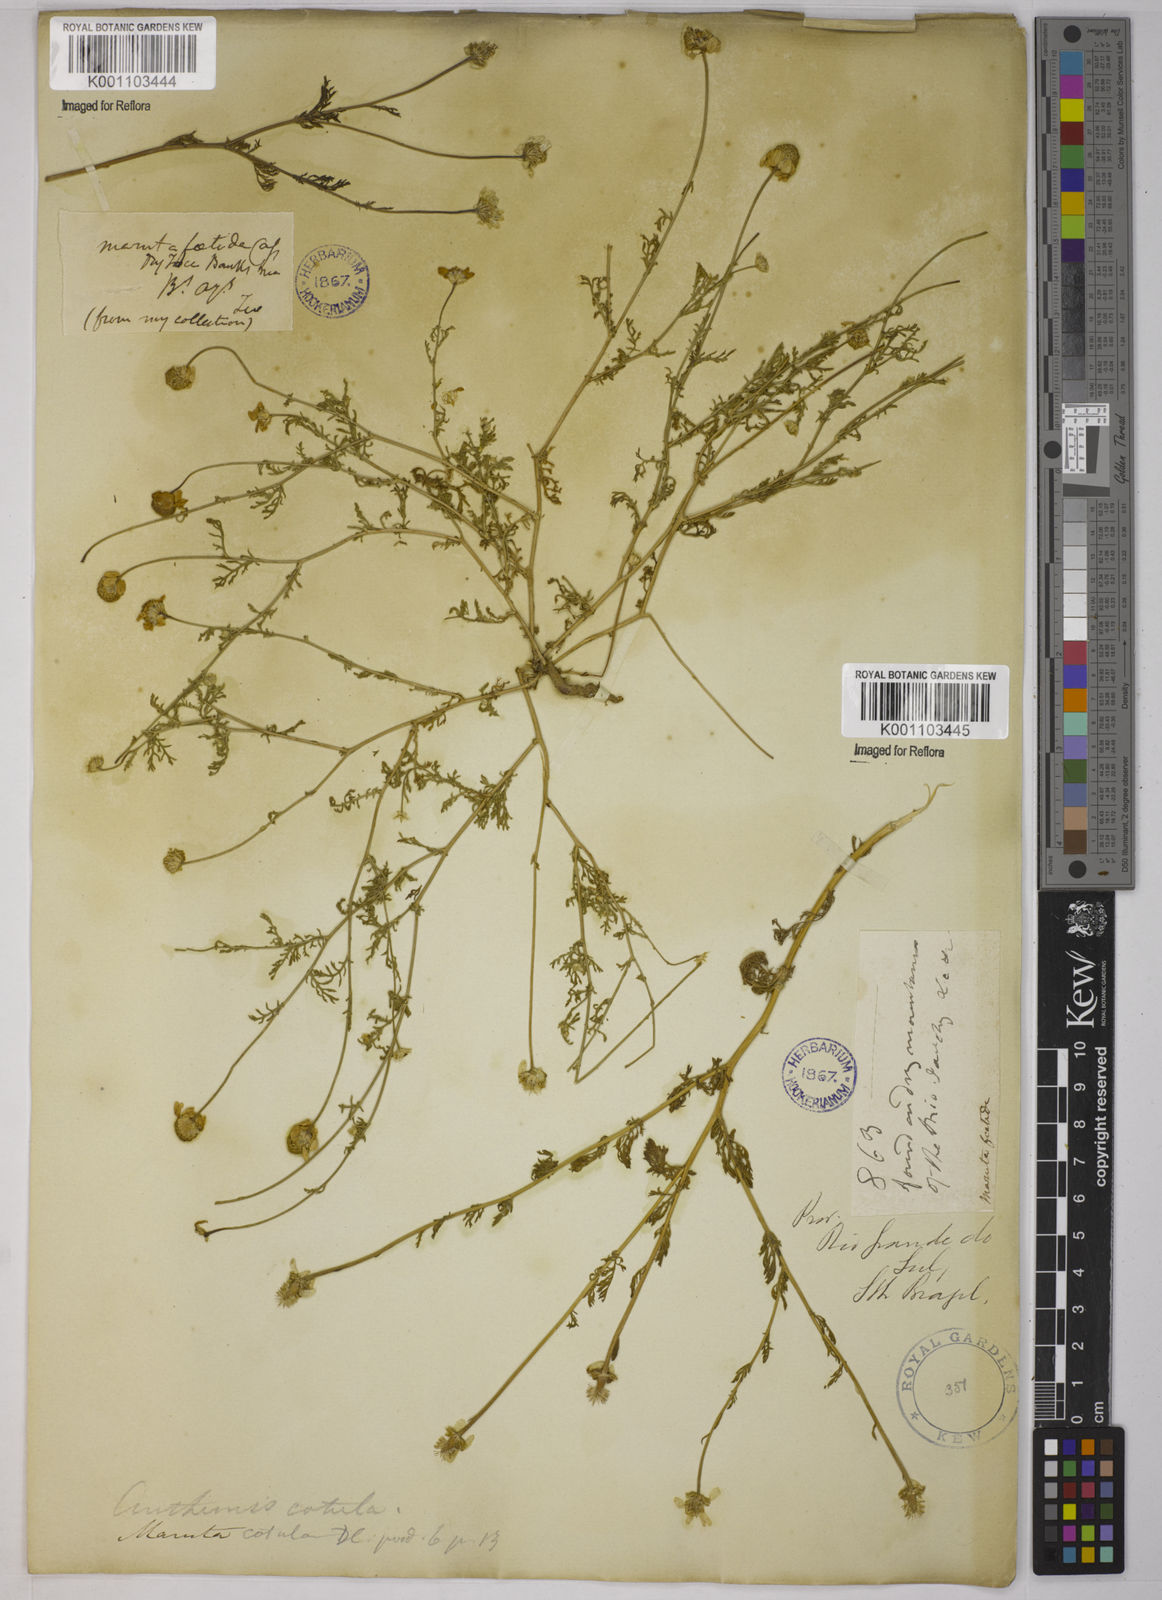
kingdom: Plantae
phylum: Tracheophyta
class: Magnoliopsida
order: Asterales
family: Asteraceae
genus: Anthemis
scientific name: Anthemis cotula
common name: Stinking chamomile
